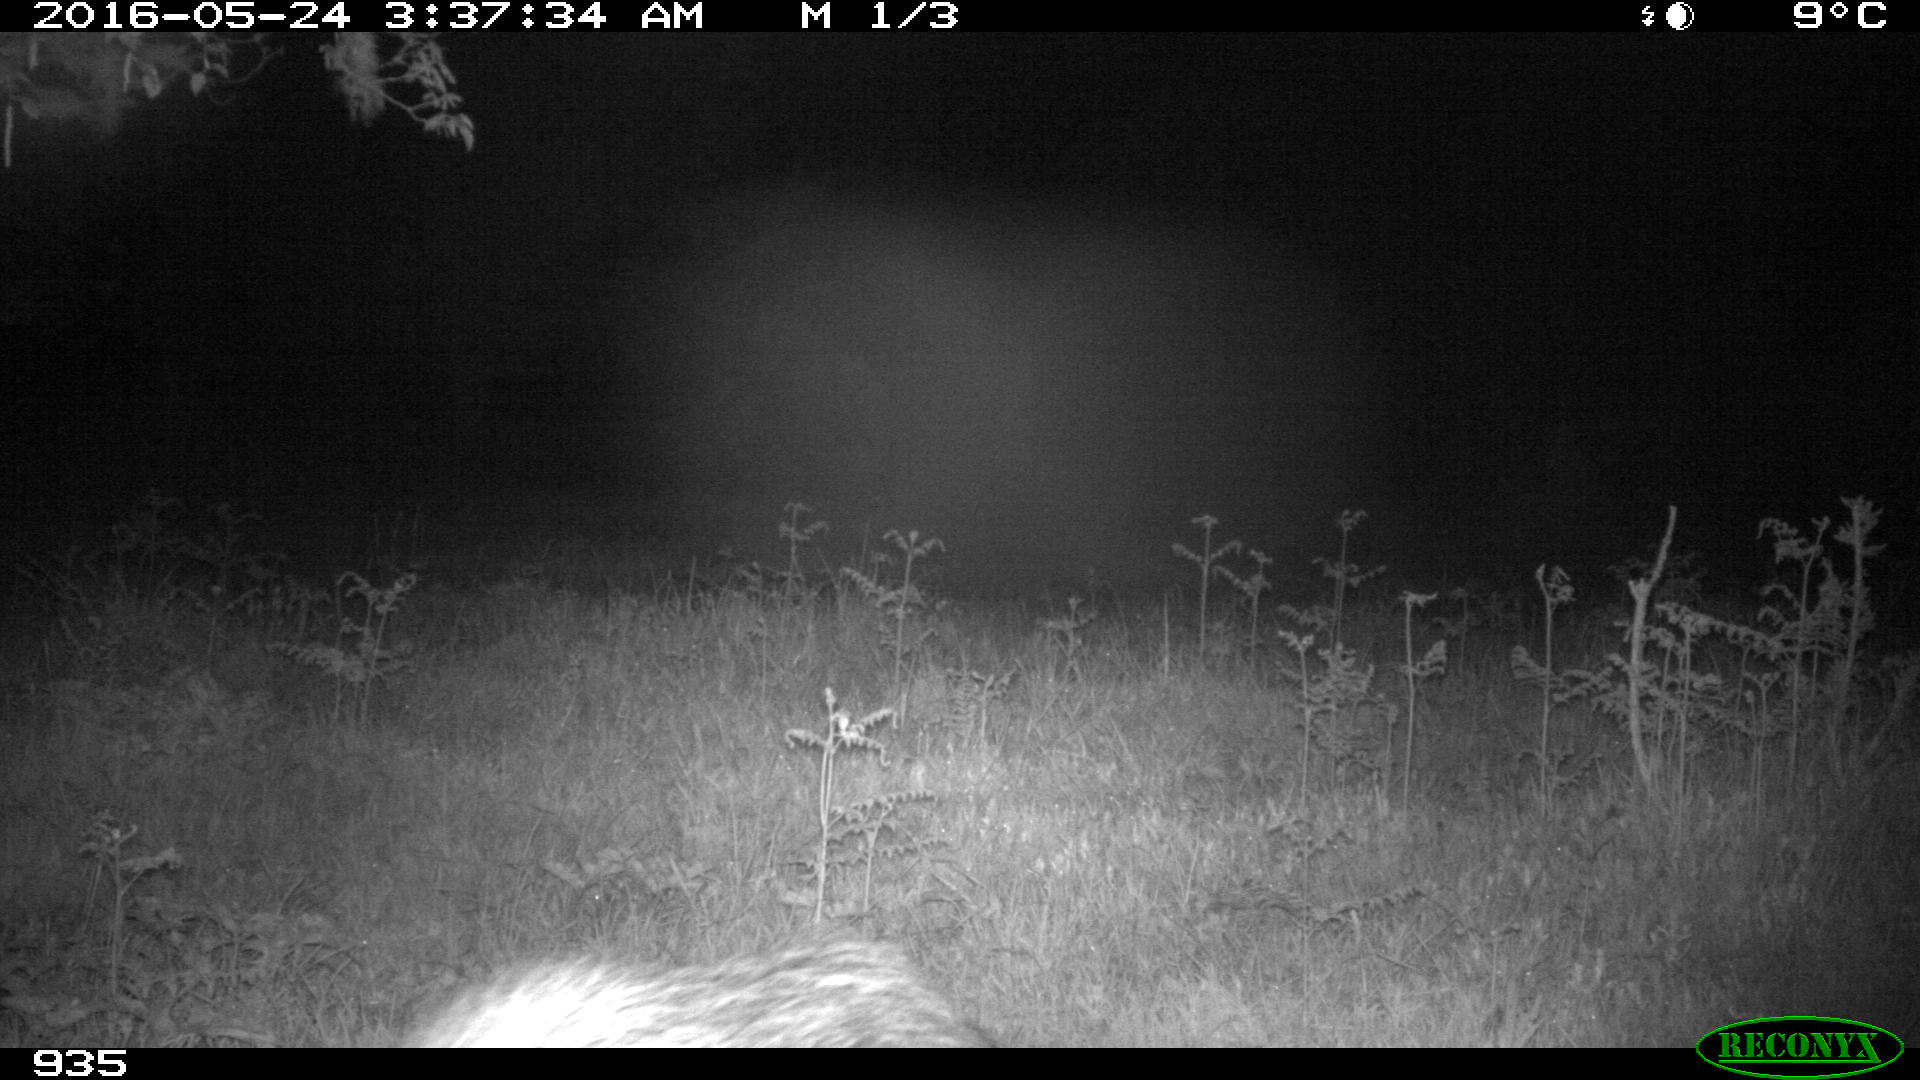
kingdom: Animalia
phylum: Chordata
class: Mammalia
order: Artiodactyla
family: Suidae
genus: Sus
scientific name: Sus scrofa
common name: Wild boar
